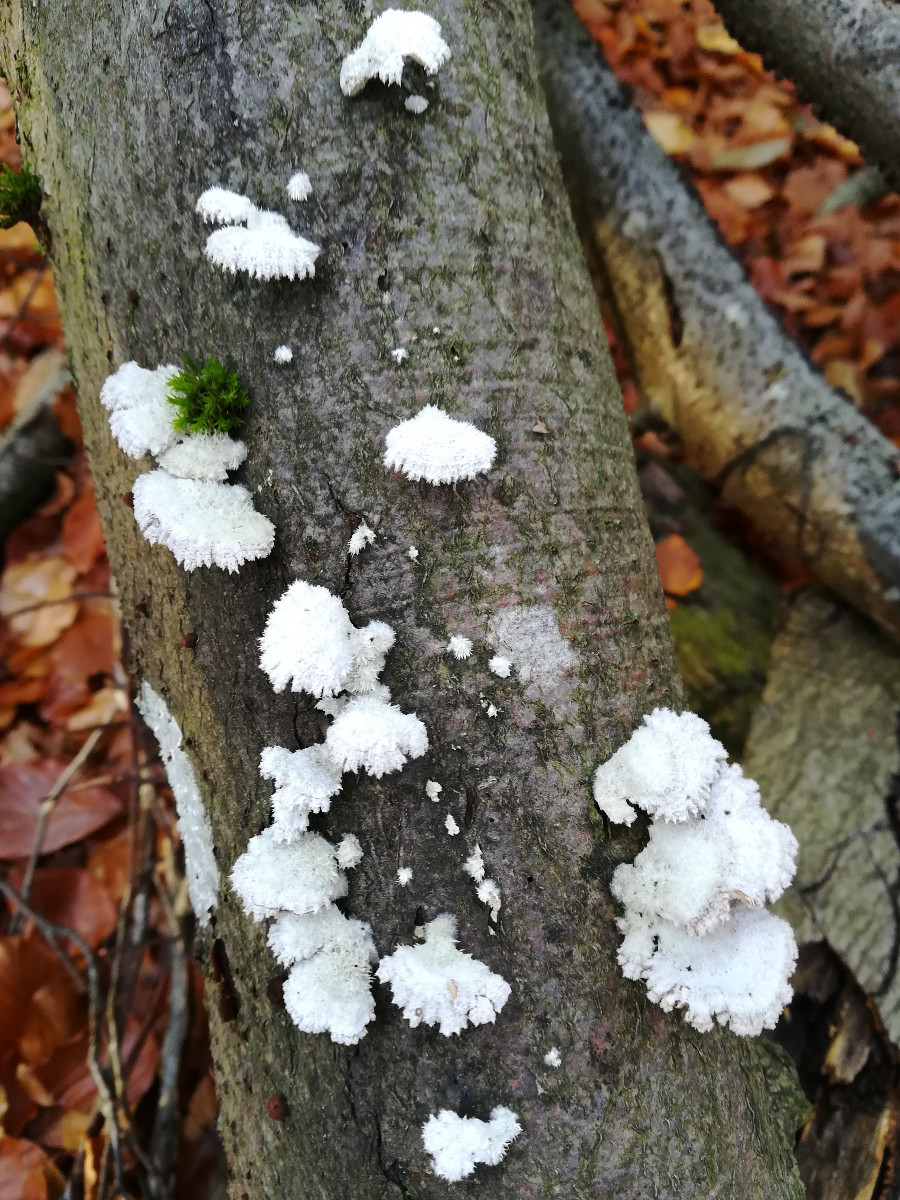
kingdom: Fungi
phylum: Basidiomycota
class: Agaricomycetes
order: Agaricales
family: Schizophyllaceae
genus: Schizophyllum
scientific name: Schizophyllum commune
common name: kløvblad
